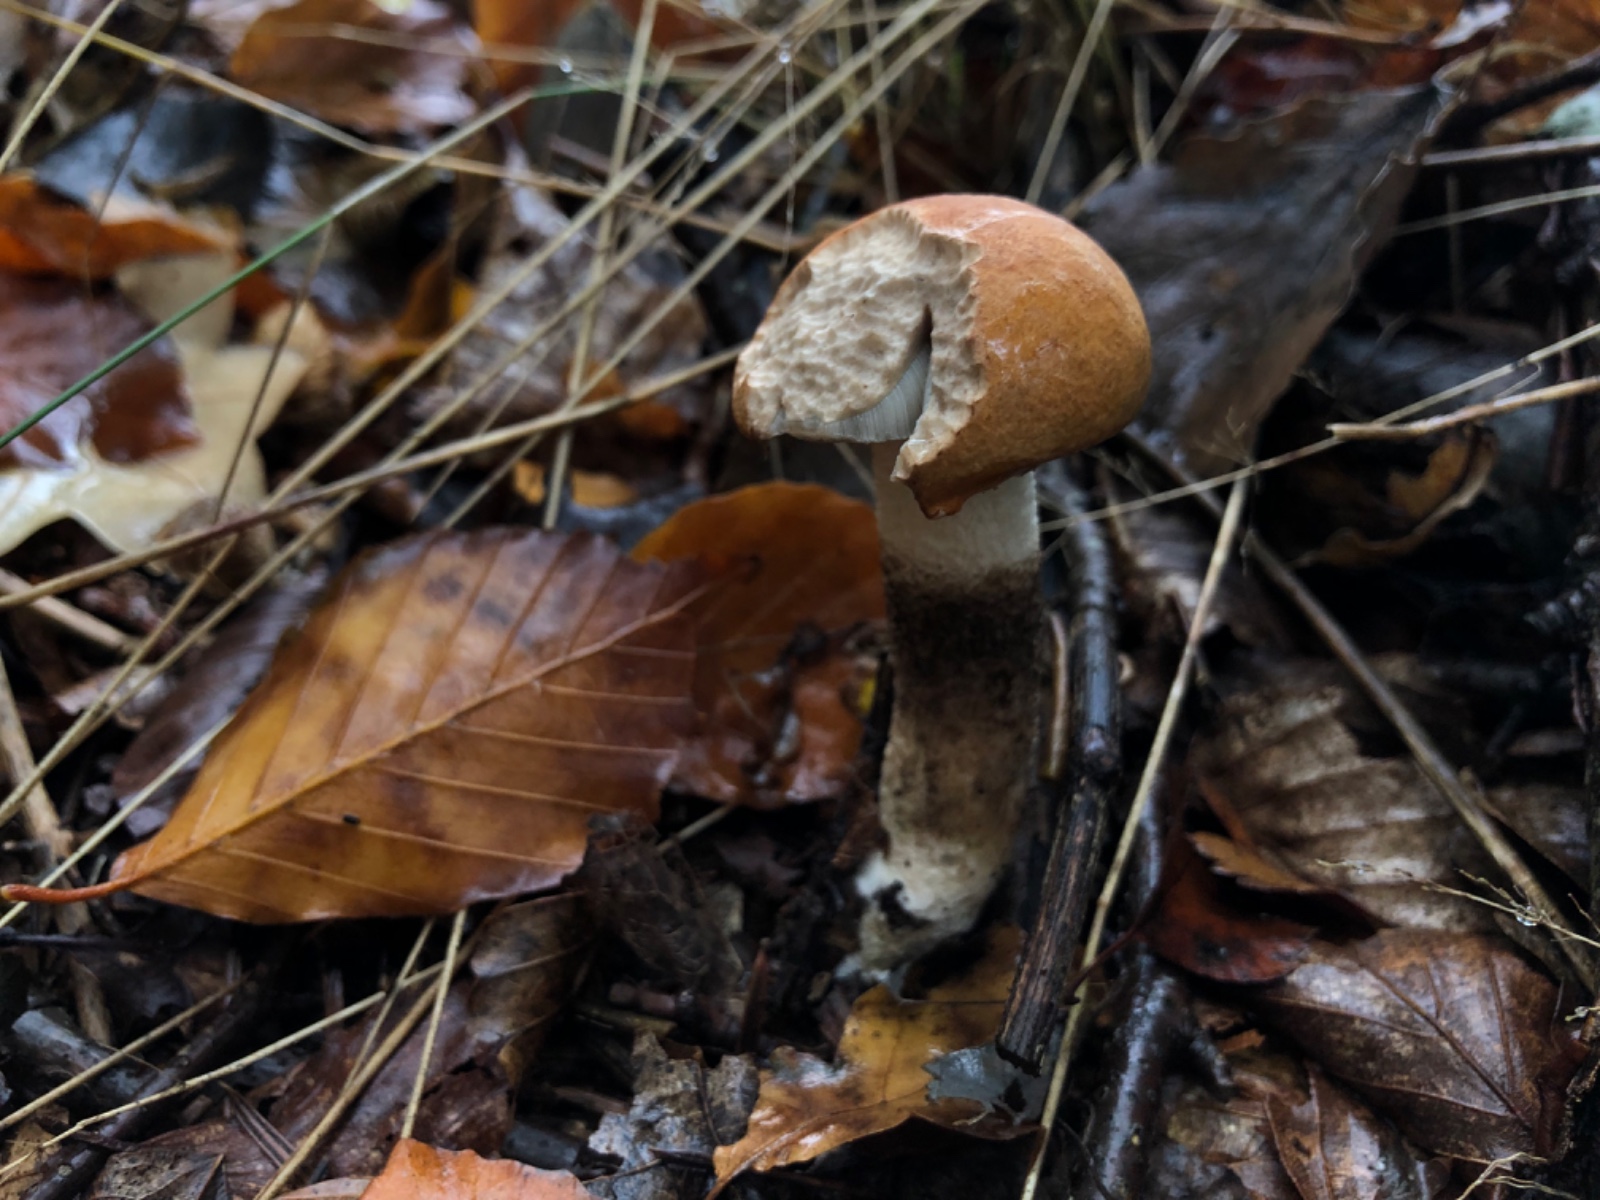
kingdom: Fungi
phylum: Basidiomycota
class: Agaricomycetes
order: Boletales
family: Boletaceae
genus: Leccinum
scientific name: Leccinum albostipitatum
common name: aspe-skælrørhat
